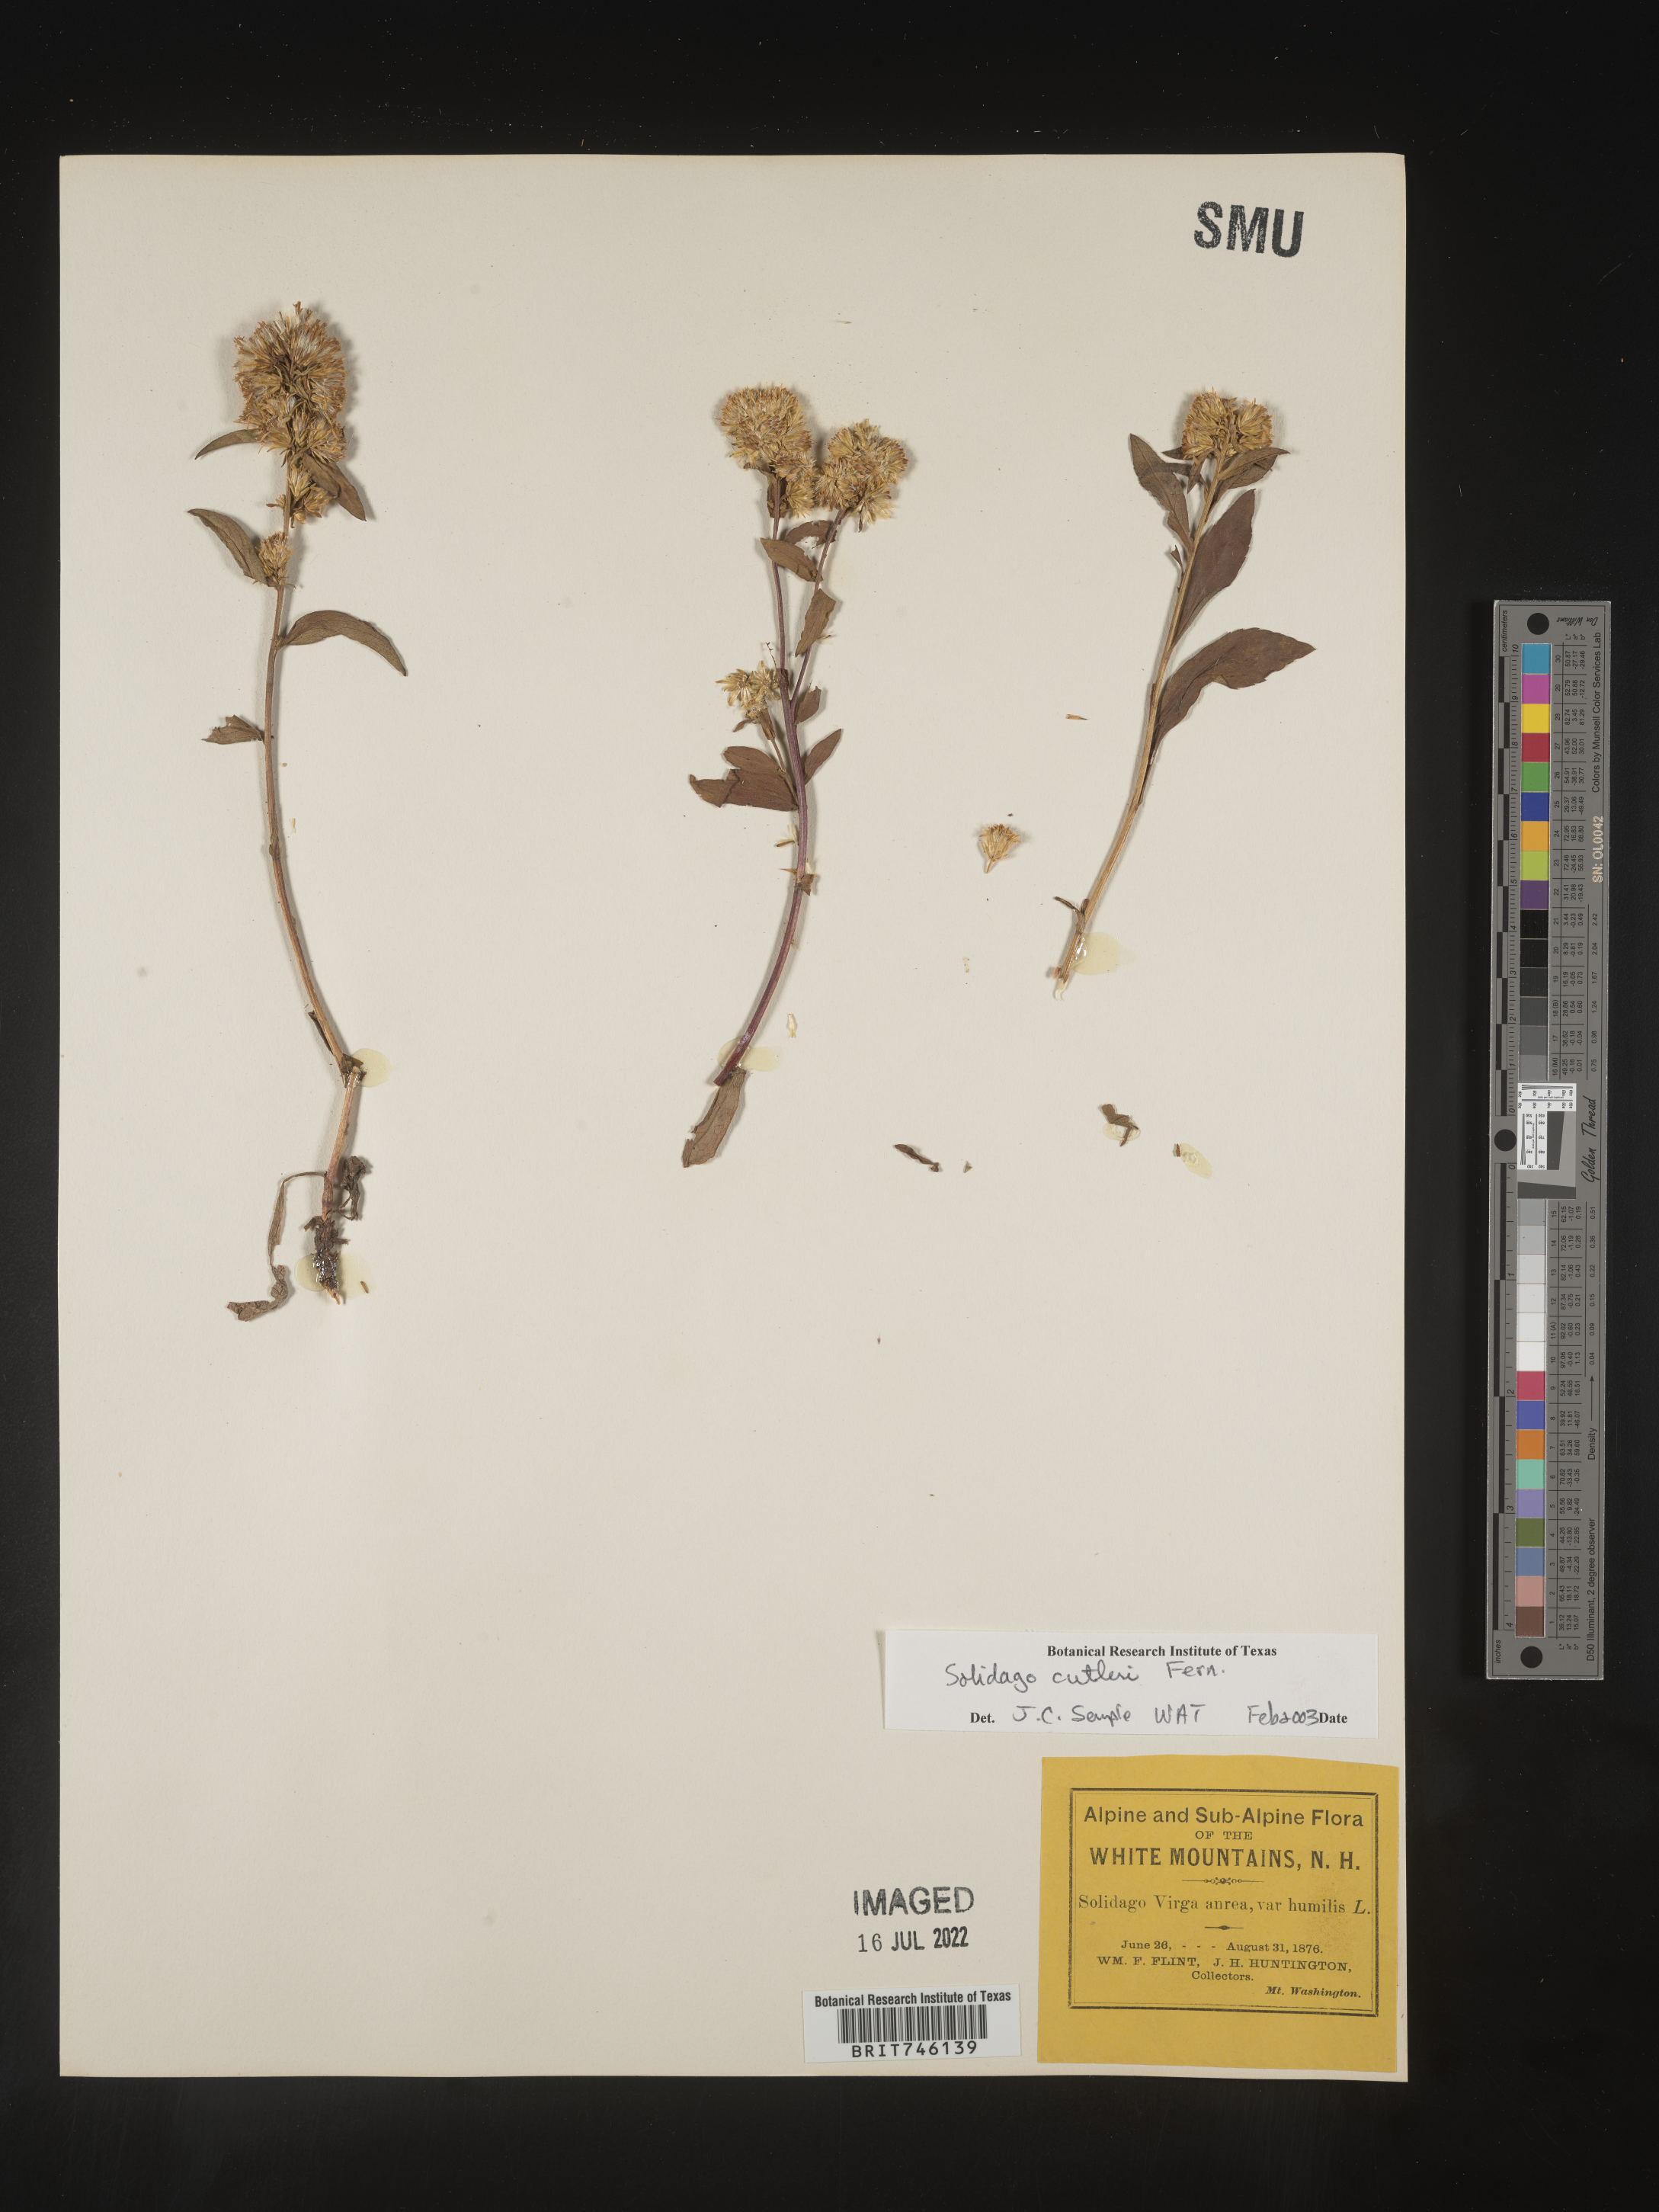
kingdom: Plantae
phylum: Tracheophyta
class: Magnoliopsida
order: Asterales
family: Asteraceae
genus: Solidago
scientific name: Solidago leiocarpa
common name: Cutler's alpine goldenrod
